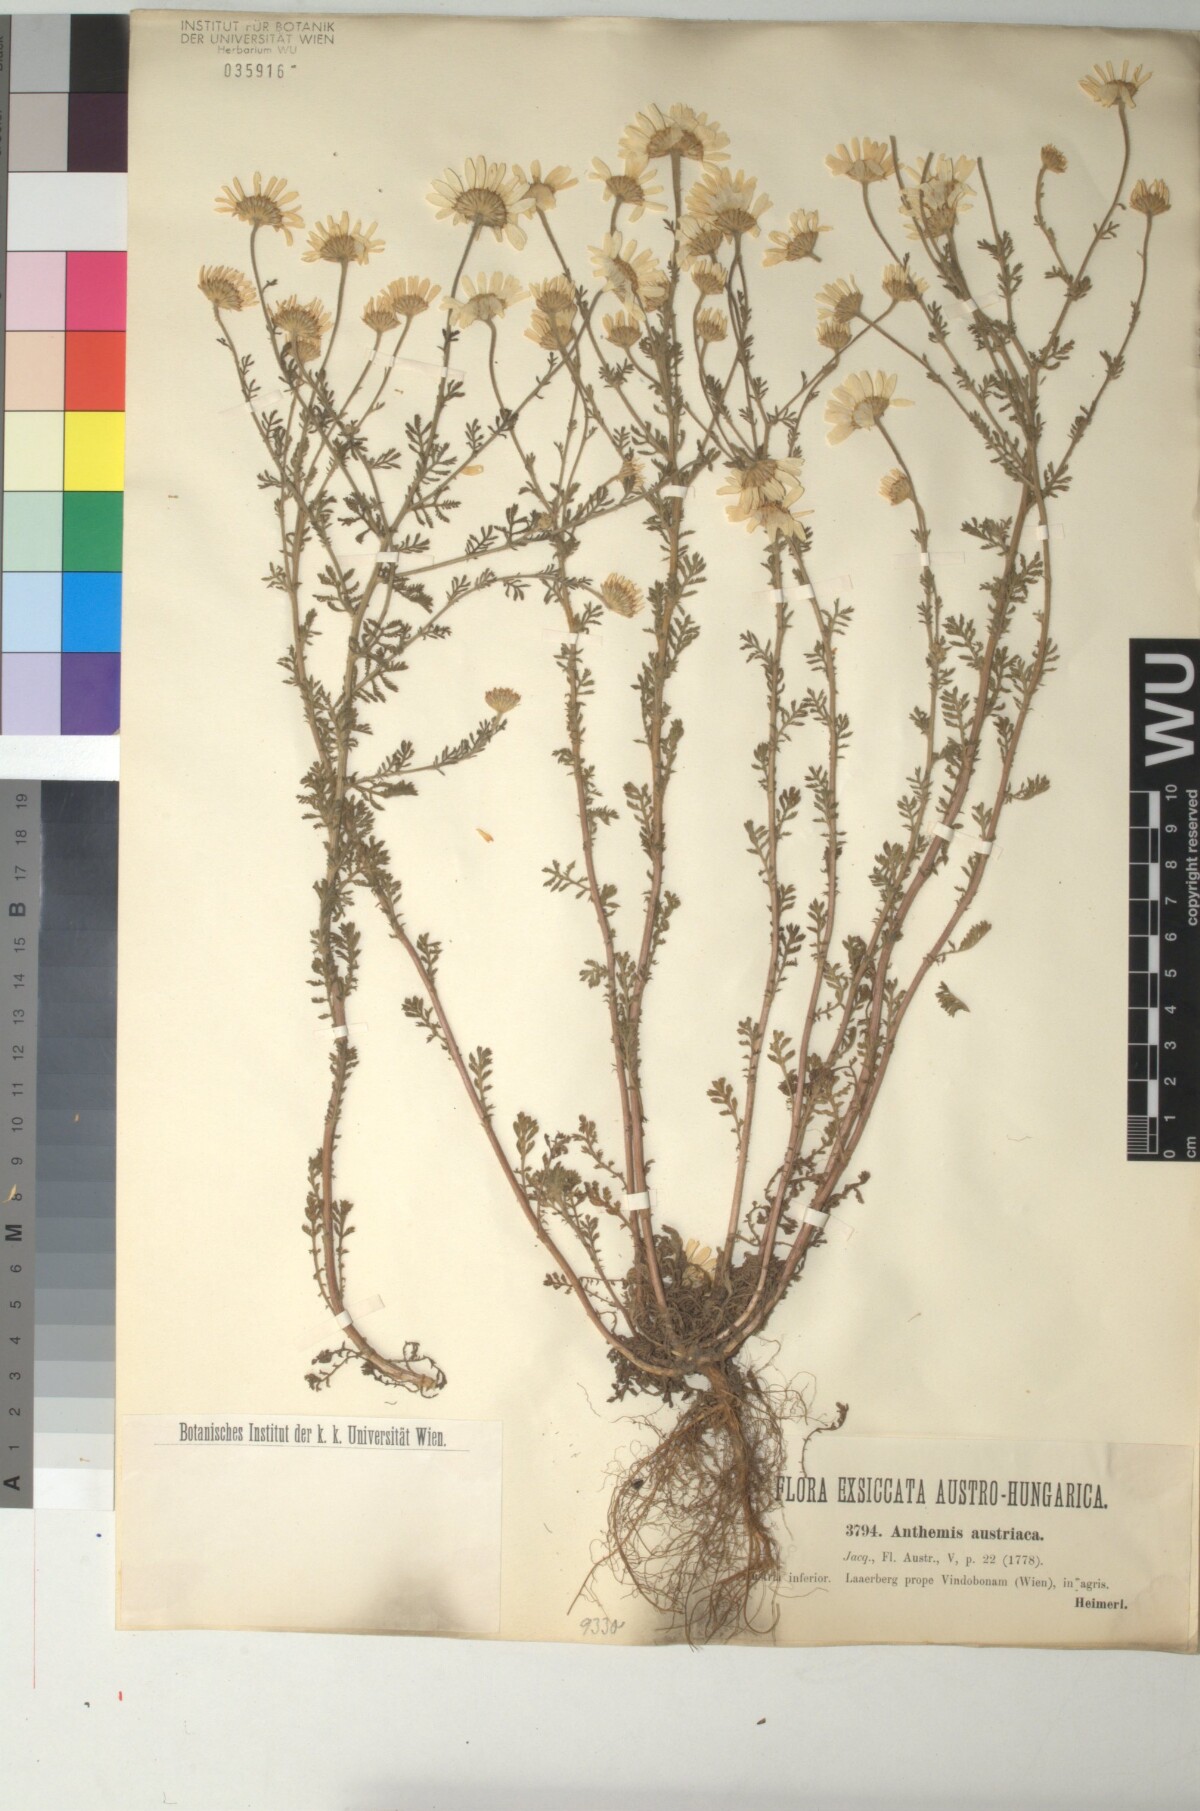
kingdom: Plantae
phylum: Tracheophyta
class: Magnoliopsida
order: Asterales
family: Asteraceae
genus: Cota
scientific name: Cota austriaca
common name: Austrian chamomile
